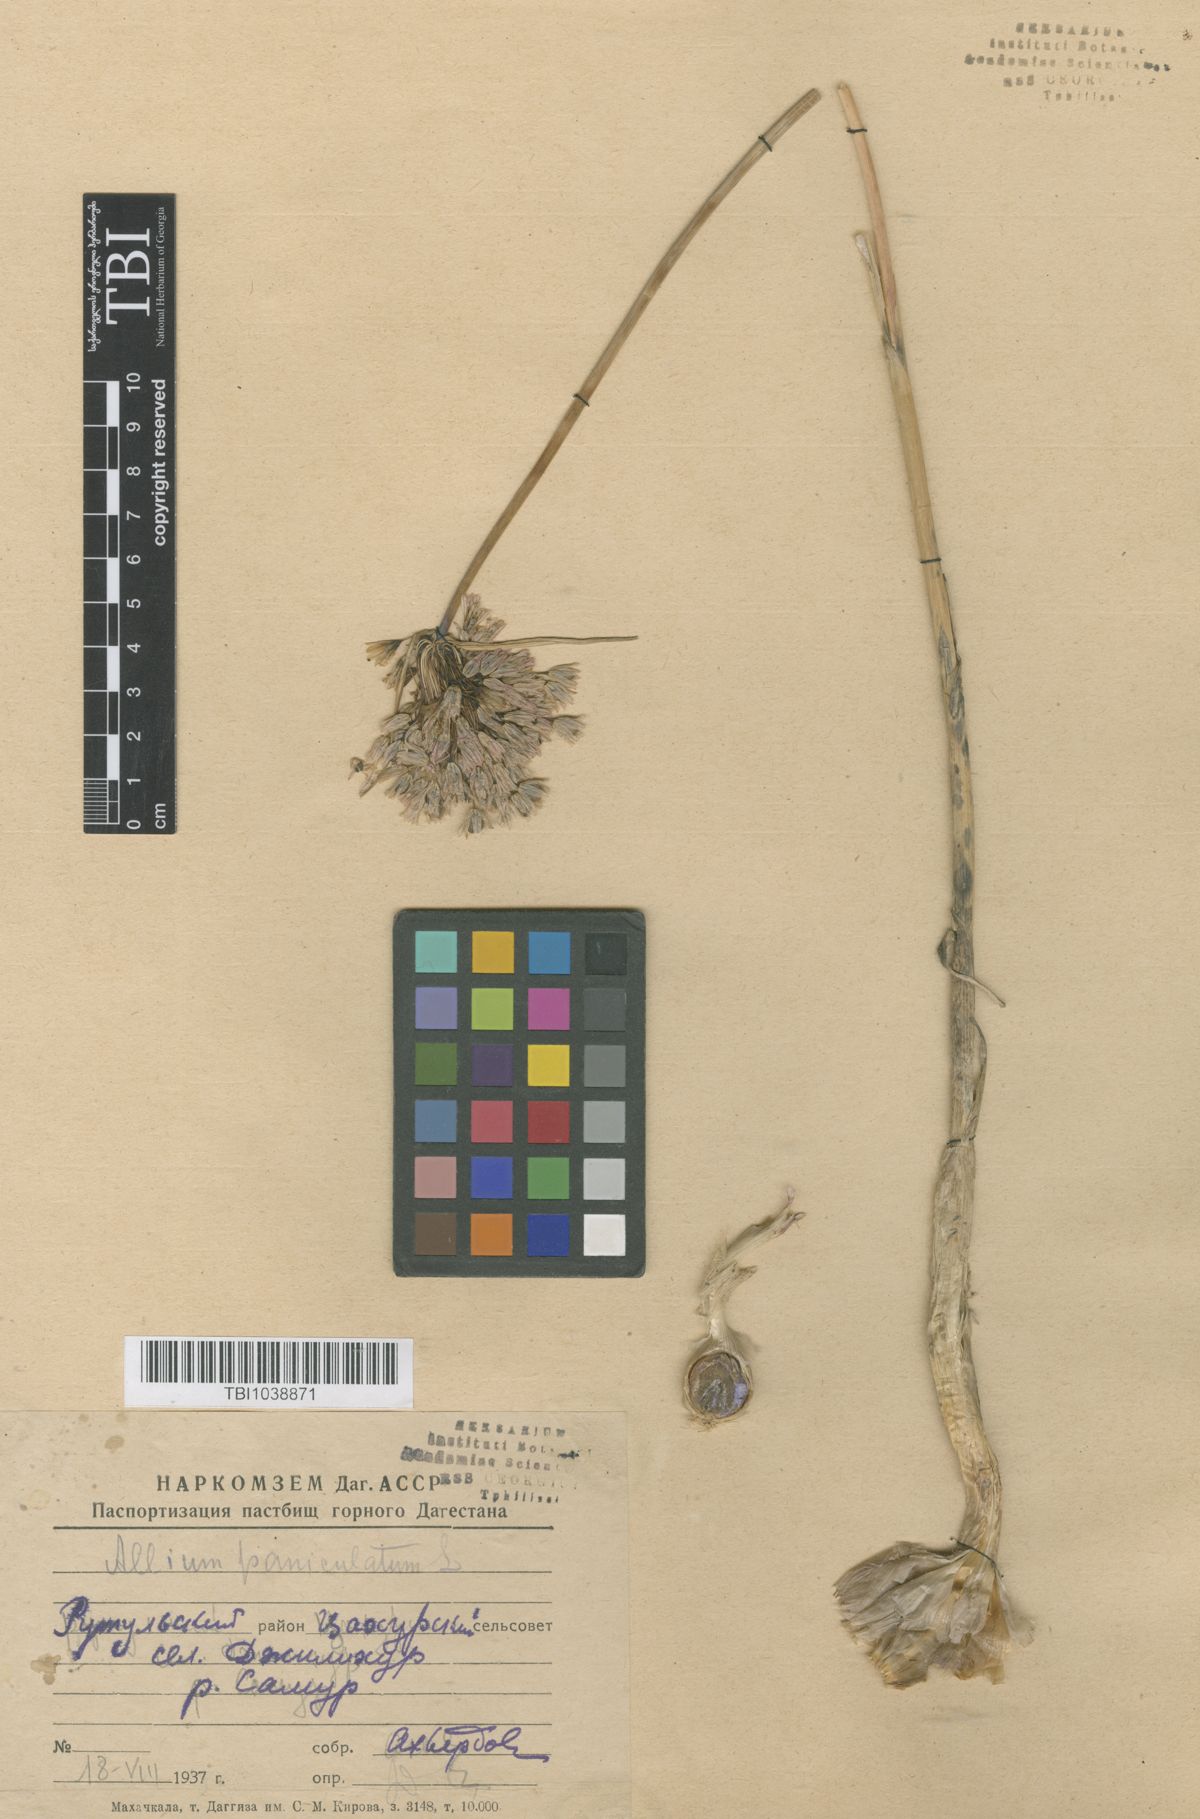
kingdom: Plantae
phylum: Tracheophyta
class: Liliopsida
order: Asparagales
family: Amaryllidaceae
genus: Allium
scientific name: Allium paniculatum
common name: Pale garlic
